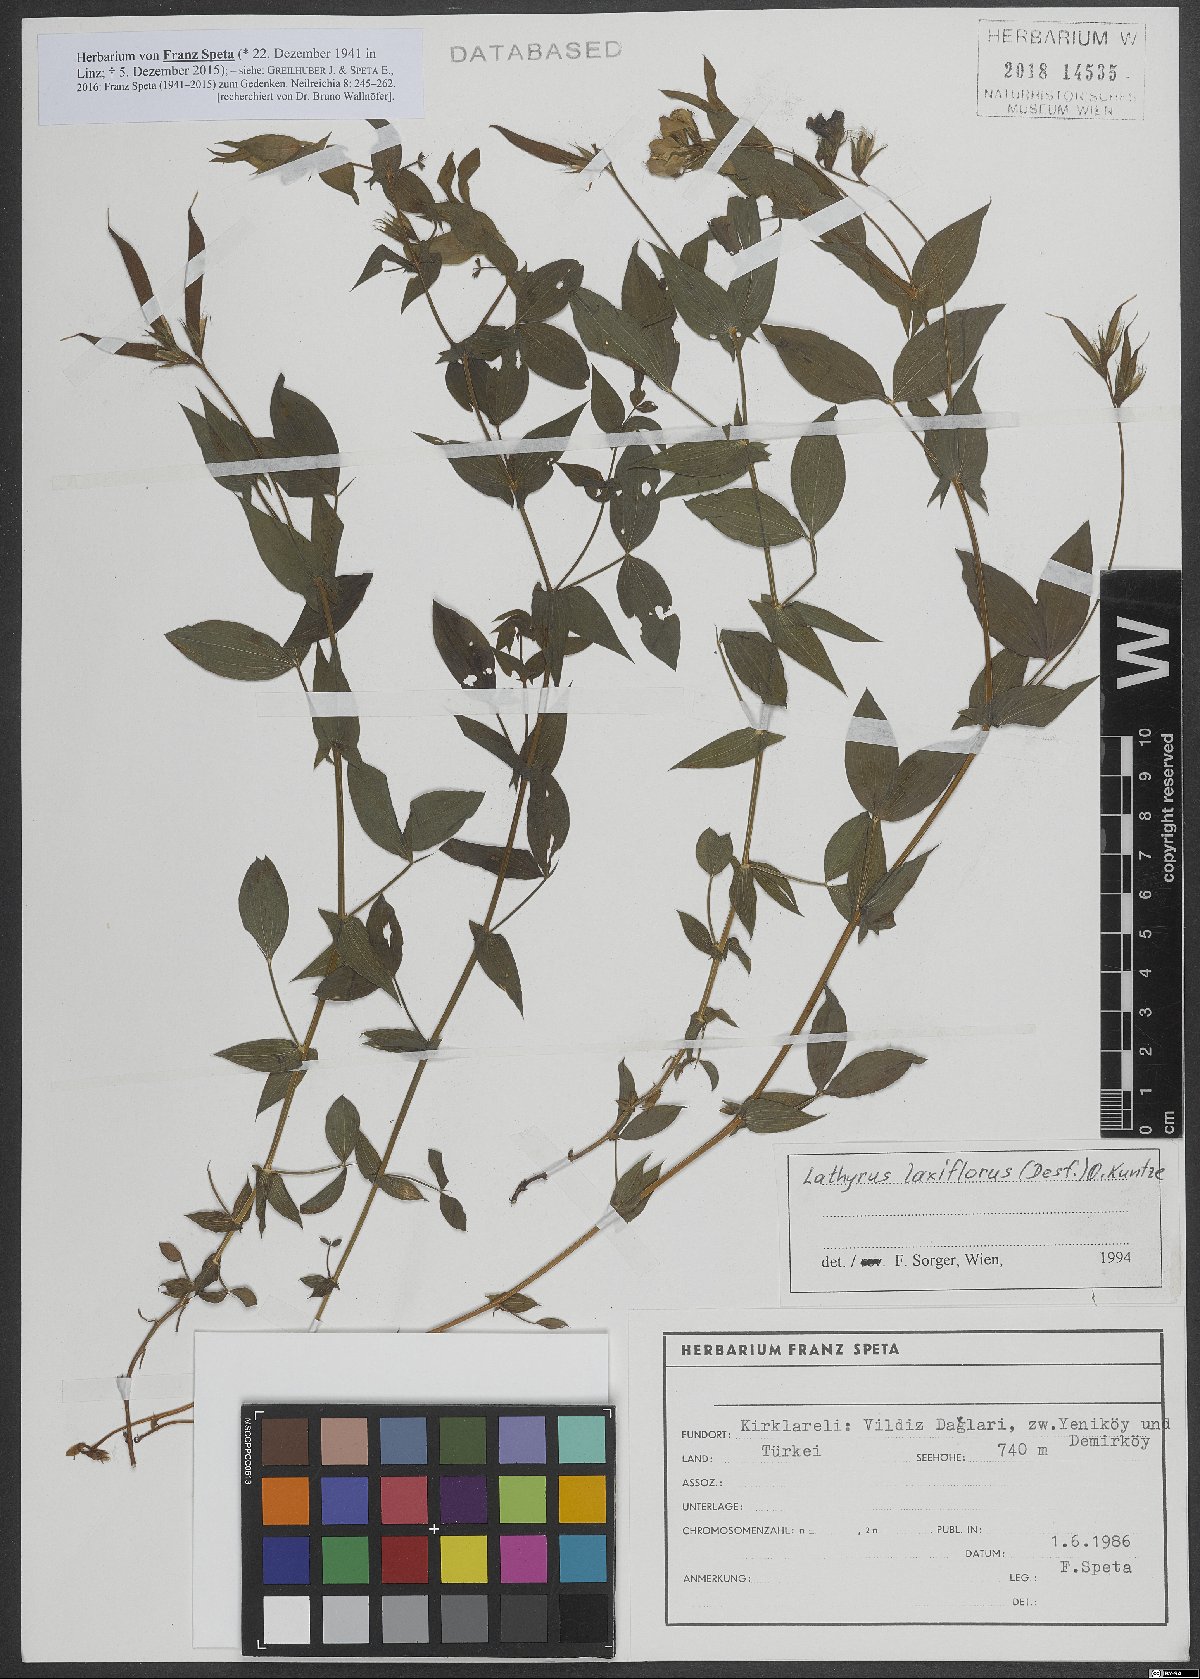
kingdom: Plantae
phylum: Tracheophyta
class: Magnoliopsida
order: Fabales
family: Fabaceae
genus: Lathyrus
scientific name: Lathyrus laxiflorus
